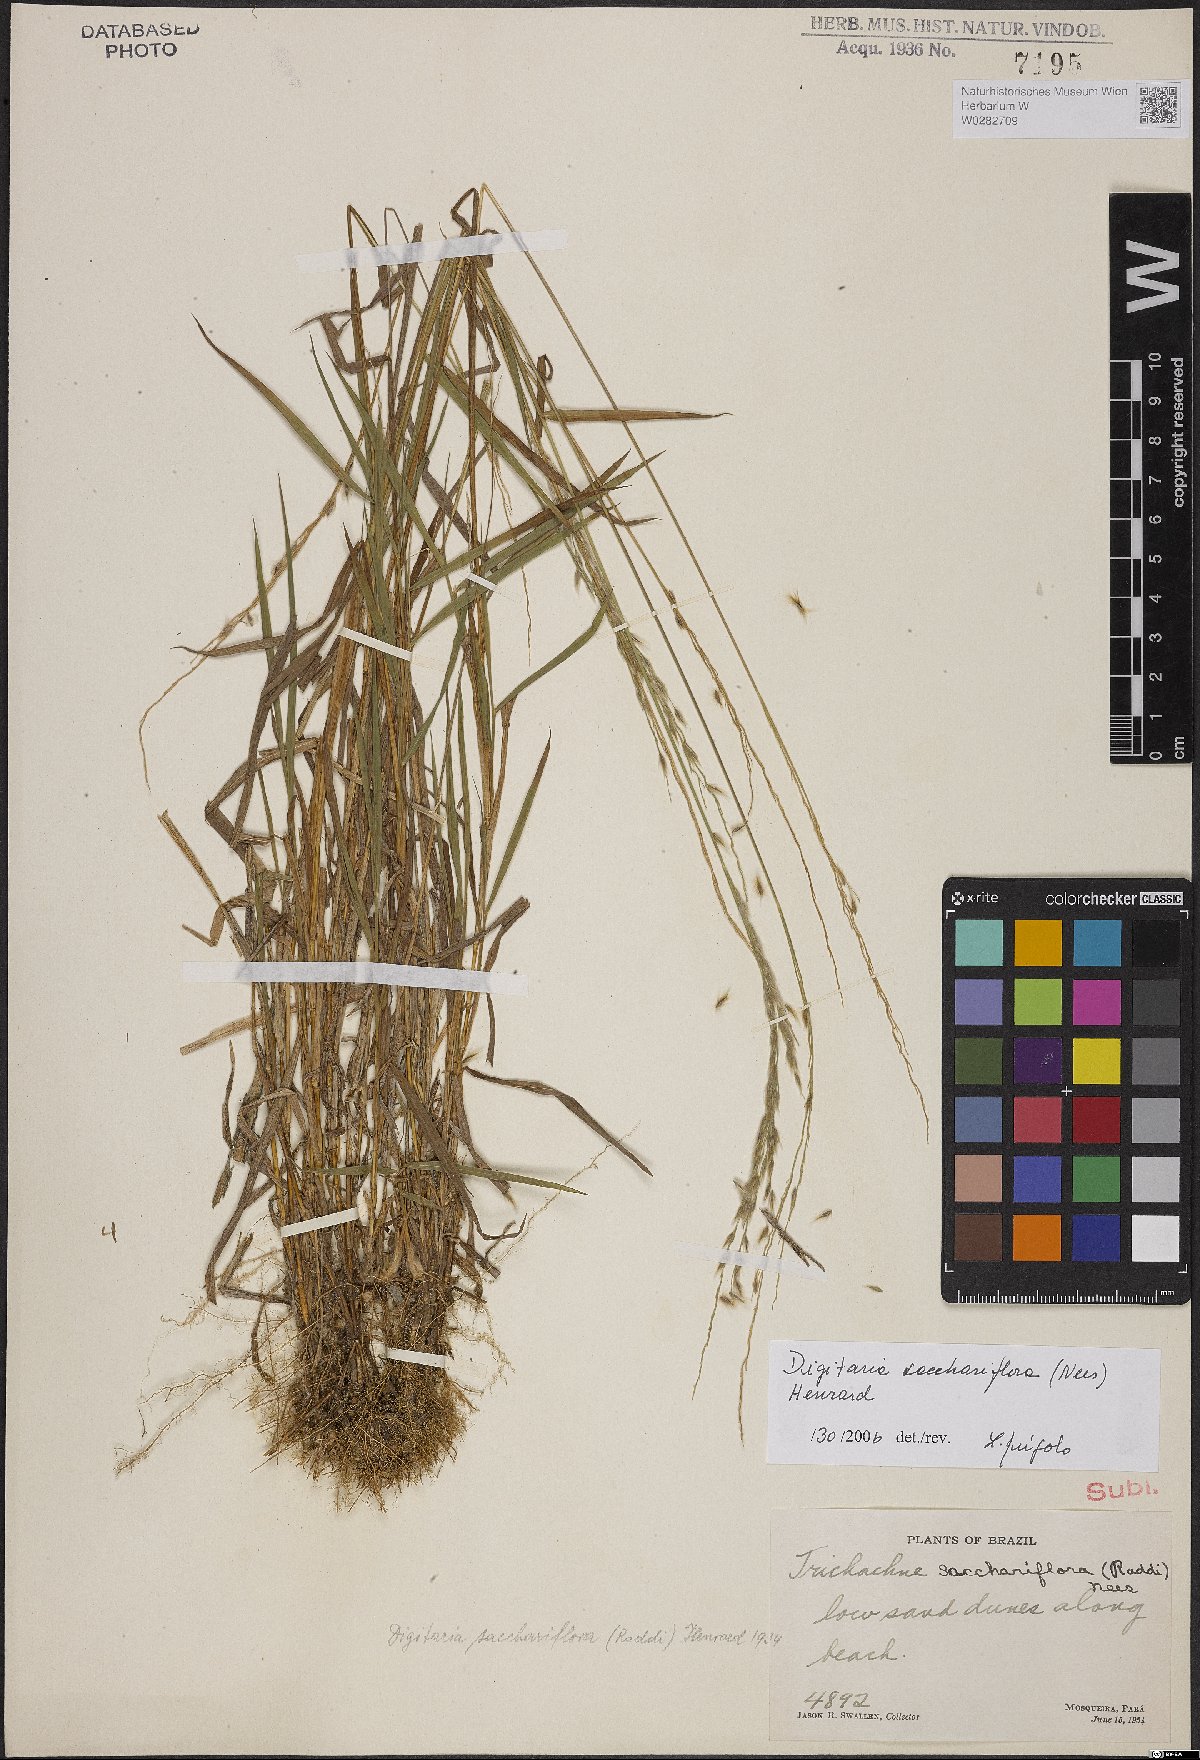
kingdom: Plantae
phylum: Tracheophyta
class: Liliopsida
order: Poales
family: Poaceae
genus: Digitaria
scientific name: Digitaria sacchariflora
